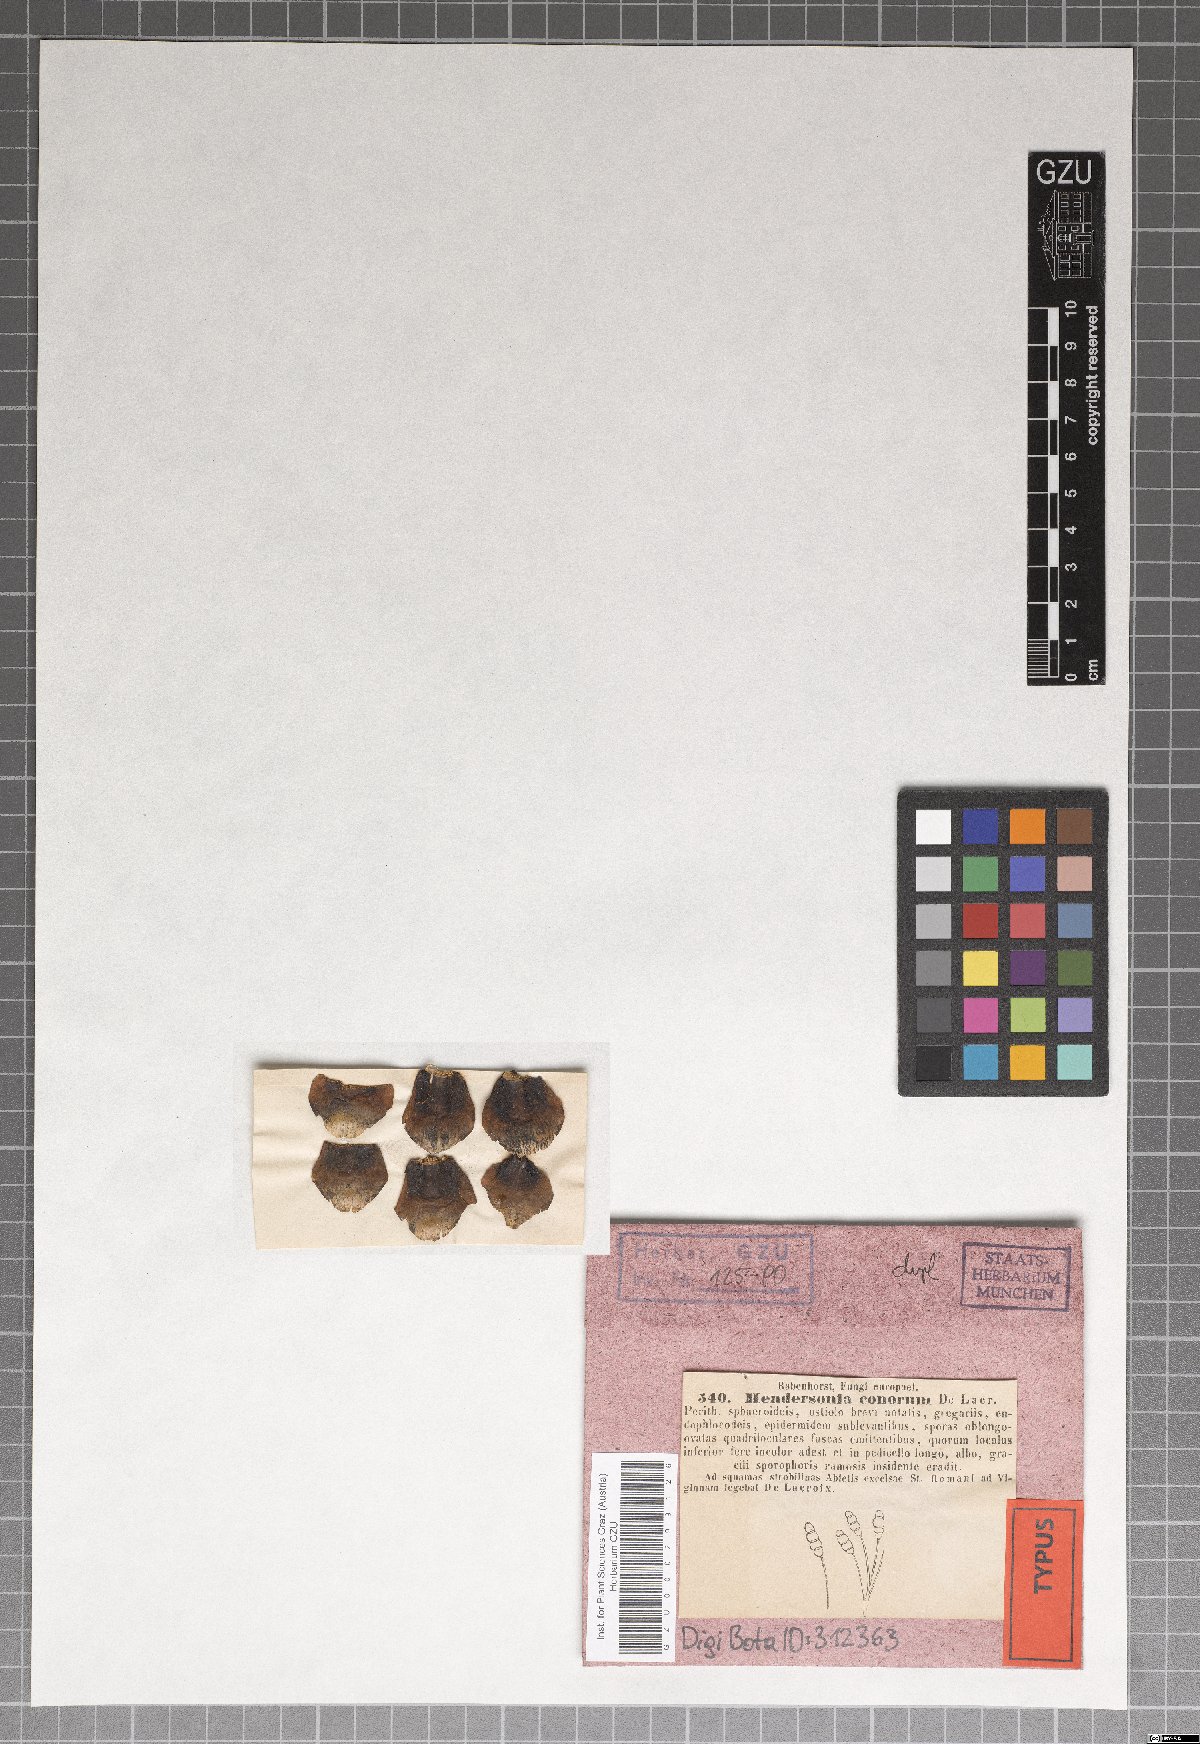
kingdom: Fungi
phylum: Ascomycota
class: Dothideomycetes
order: Pleosporales
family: Phaeosphaeriaceae
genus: Hendersonia
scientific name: Hendersonia conorum
